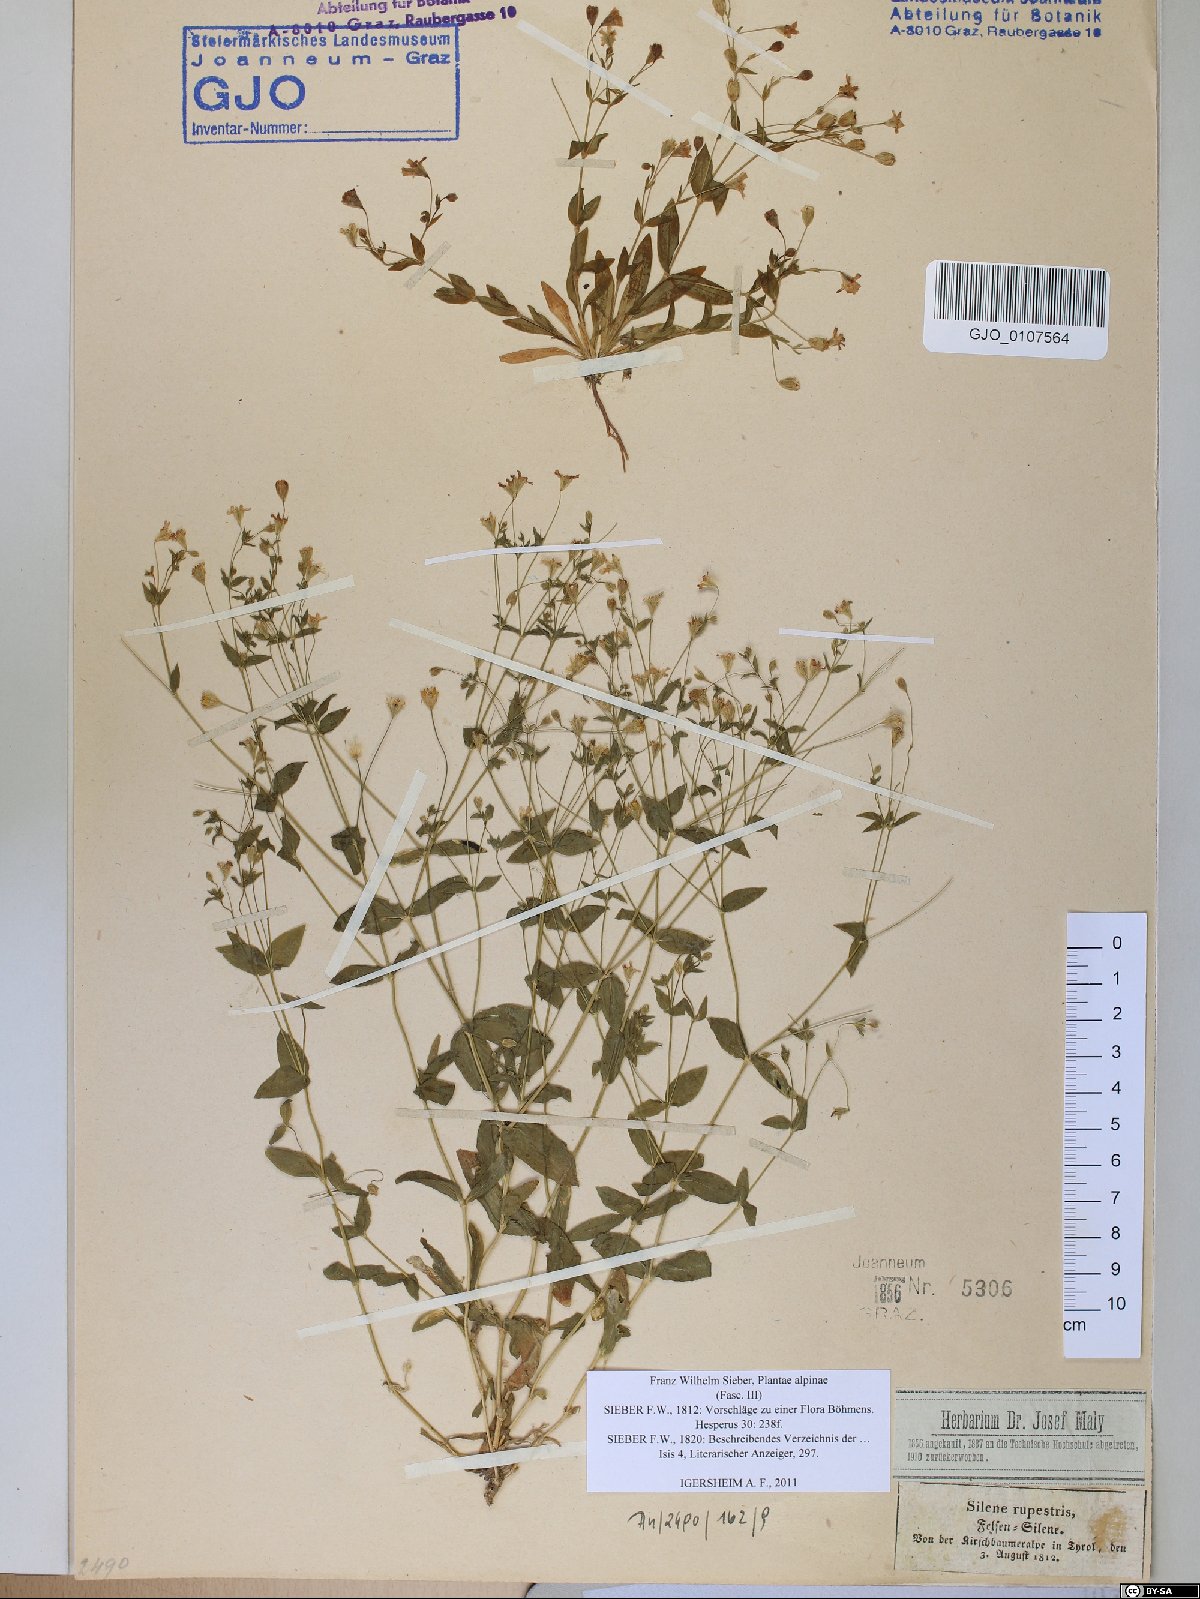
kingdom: Plantae
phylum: Tracheophyta
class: Magnoliopsida
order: Caryophyllales
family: Caryophyllaceae
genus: Atocion
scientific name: Atocion rupestre
